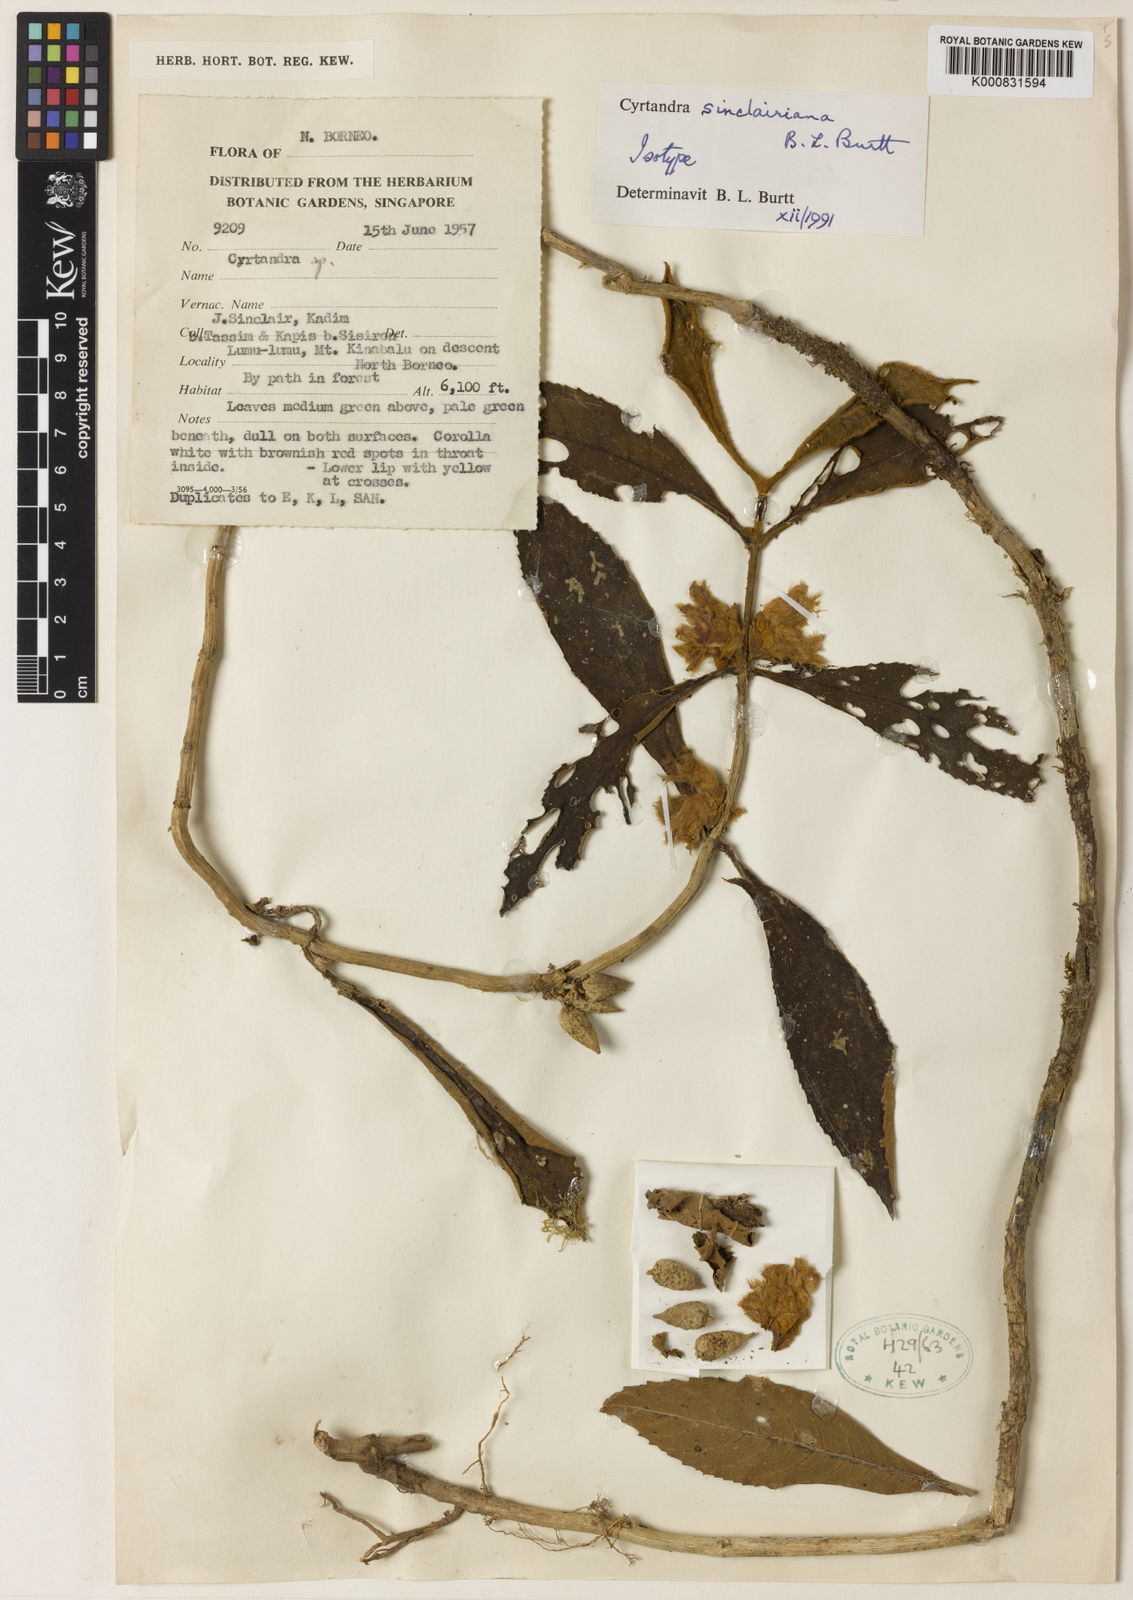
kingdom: Plantae
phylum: Tracheophyta
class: Magnoliopsida
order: Lamiales
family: Gesneriaceae
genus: Cyrtandra
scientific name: Cyrtandra sinclairiana
